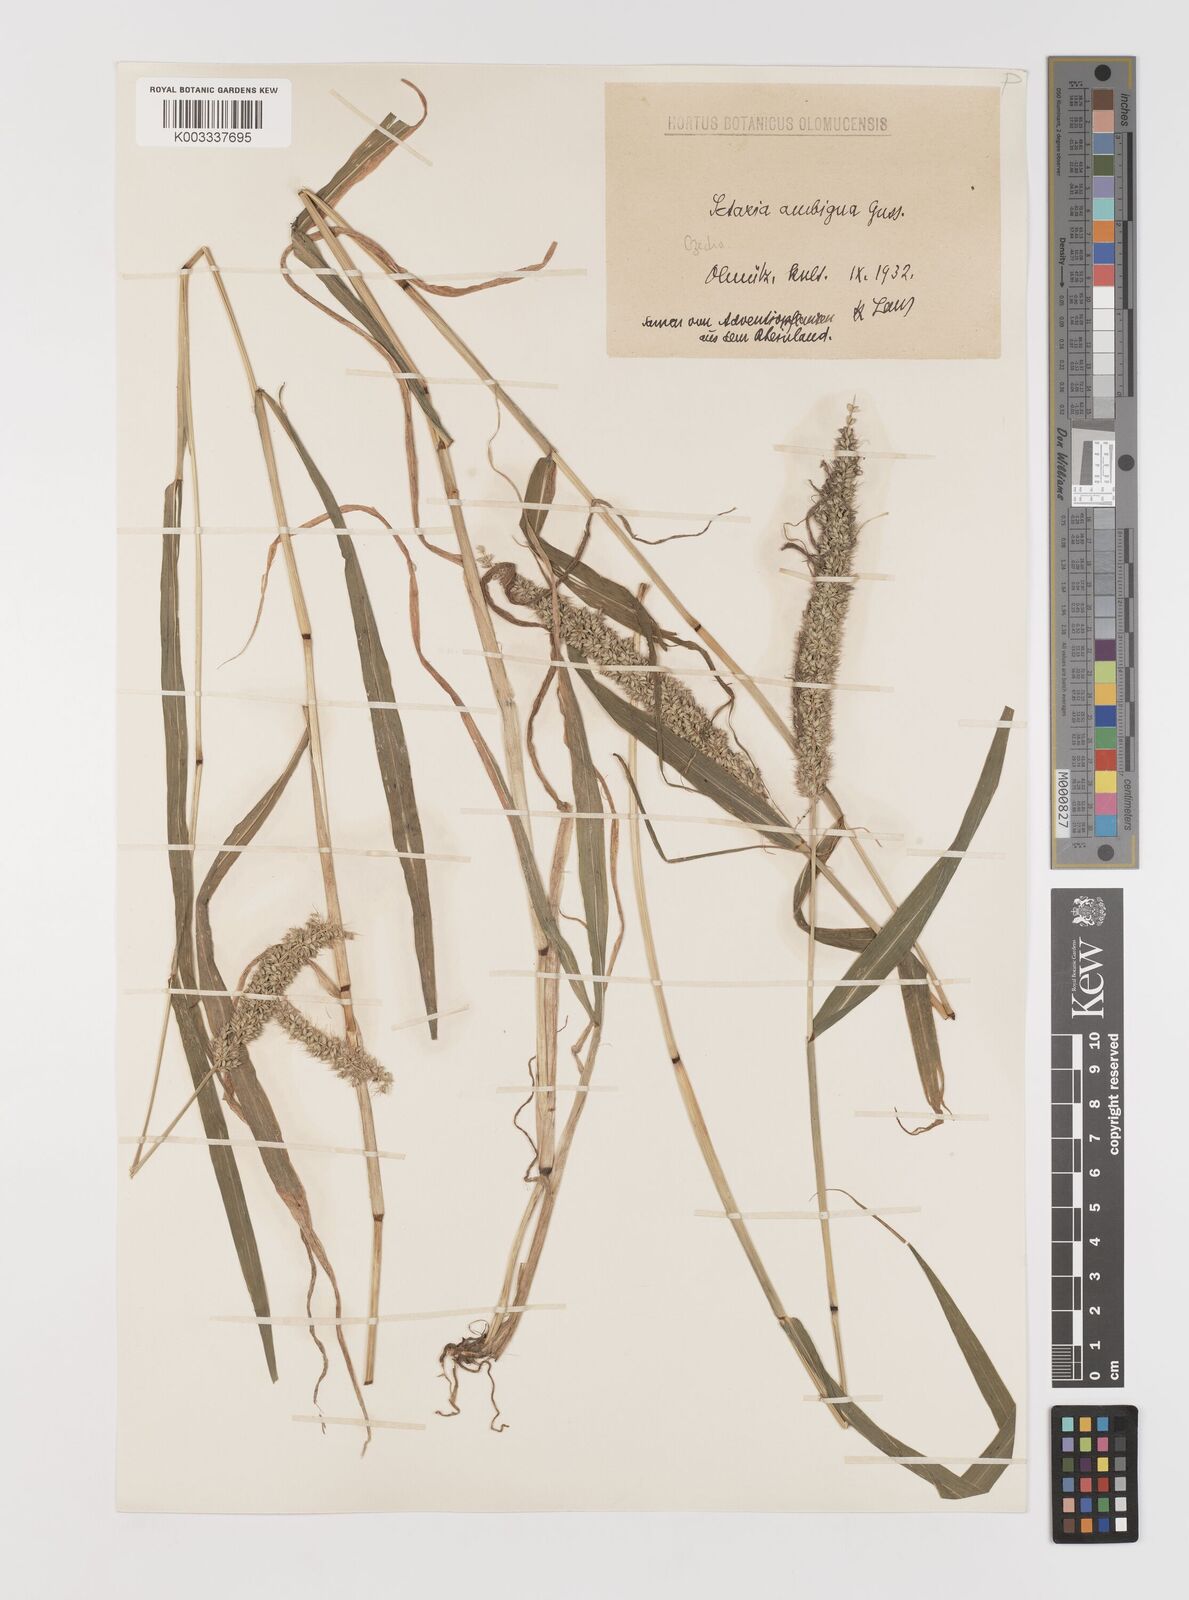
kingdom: Plantae
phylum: Tracheophyta
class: Liliopsida
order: Poales
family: Poaceae
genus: Setaria
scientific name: Setaria verticillata
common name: Hooked bristlegrass
